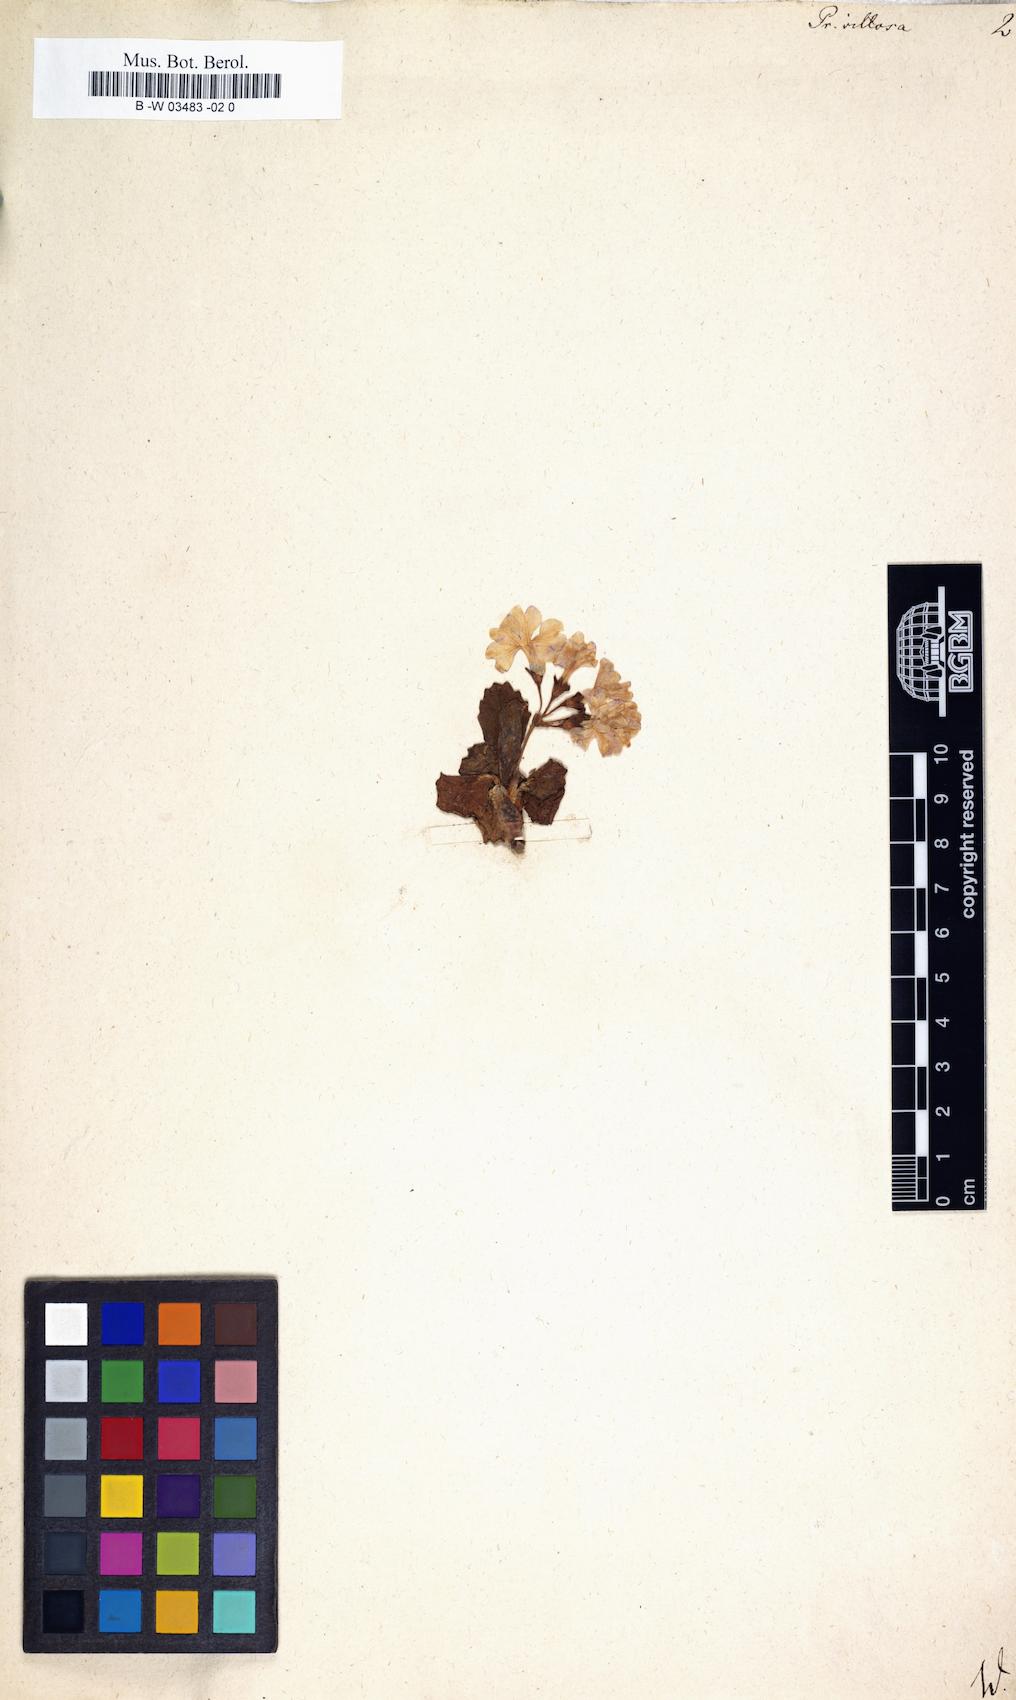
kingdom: Plantae
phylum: Tracheophyta
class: Magnoliopsida
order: Ericales
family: Primulaceae
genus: Primula
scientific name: Primula villosa
